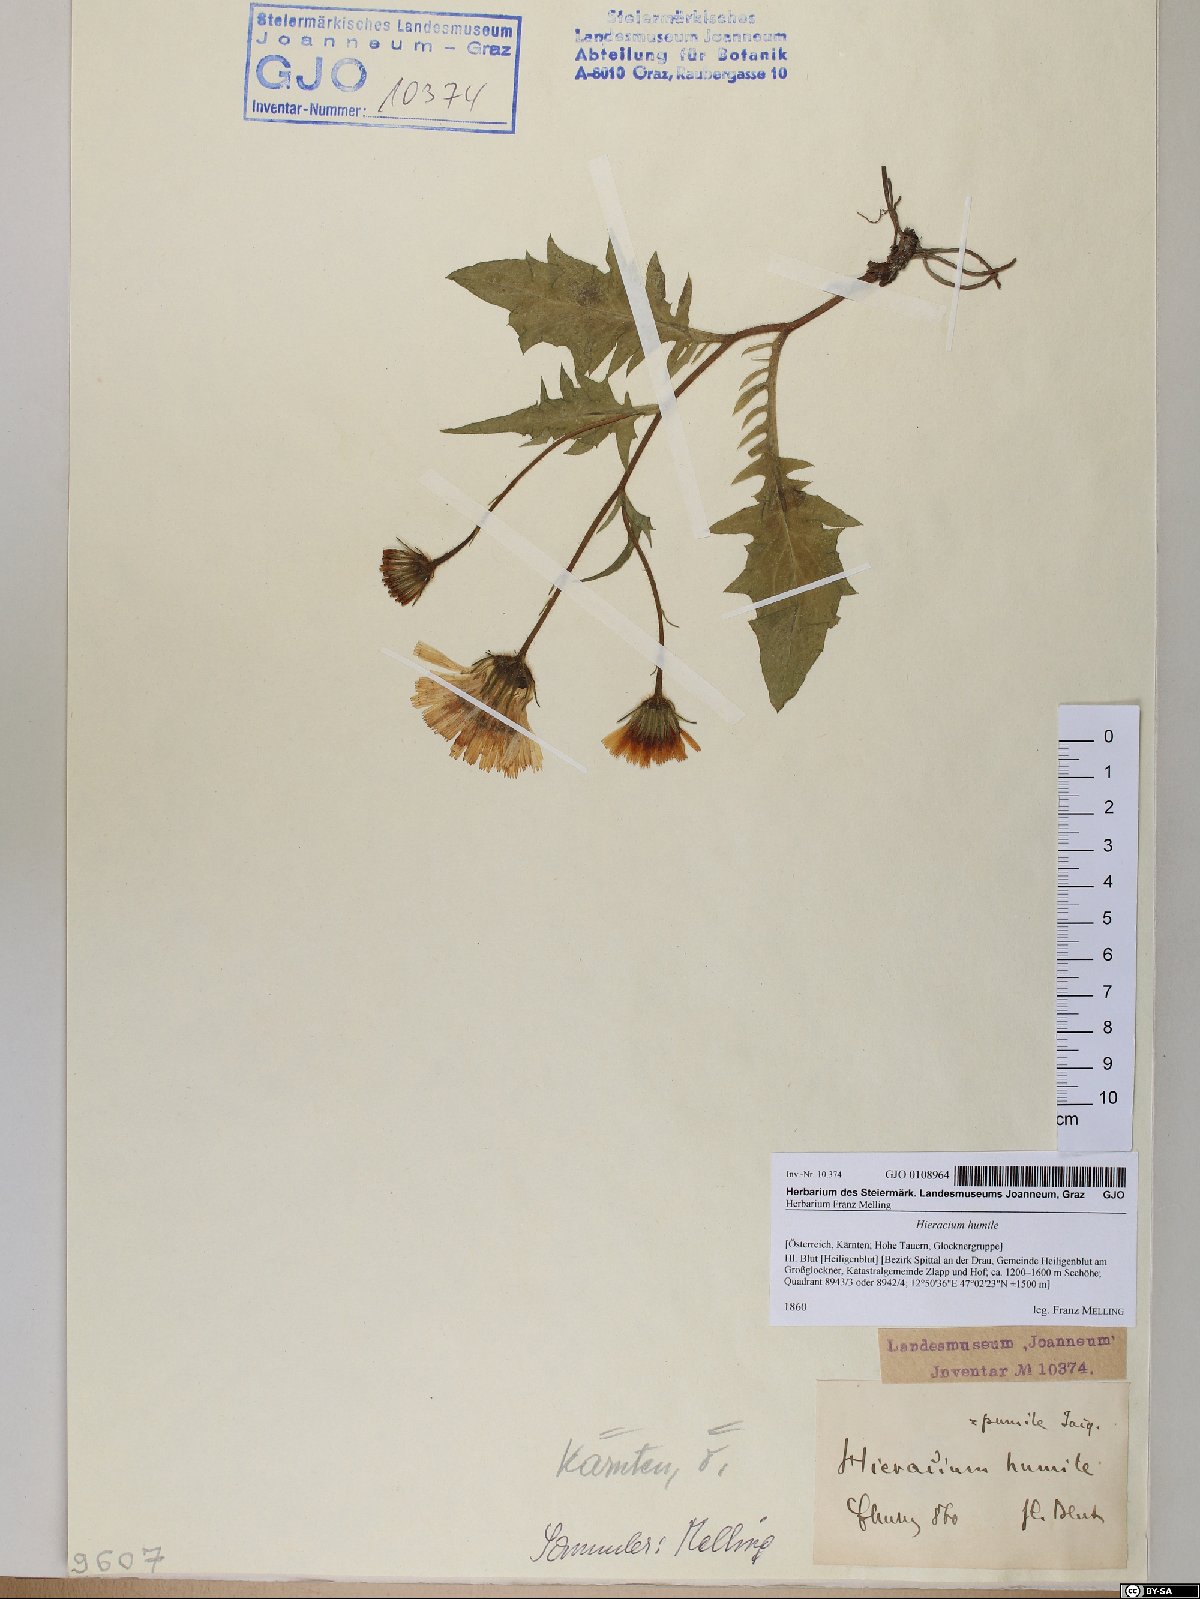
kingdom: Plantae
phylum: Tracheophyta
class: Magnoliopsida
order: Asterales
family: Asteraceae
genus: Hieracium
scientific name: Hieracium humile
